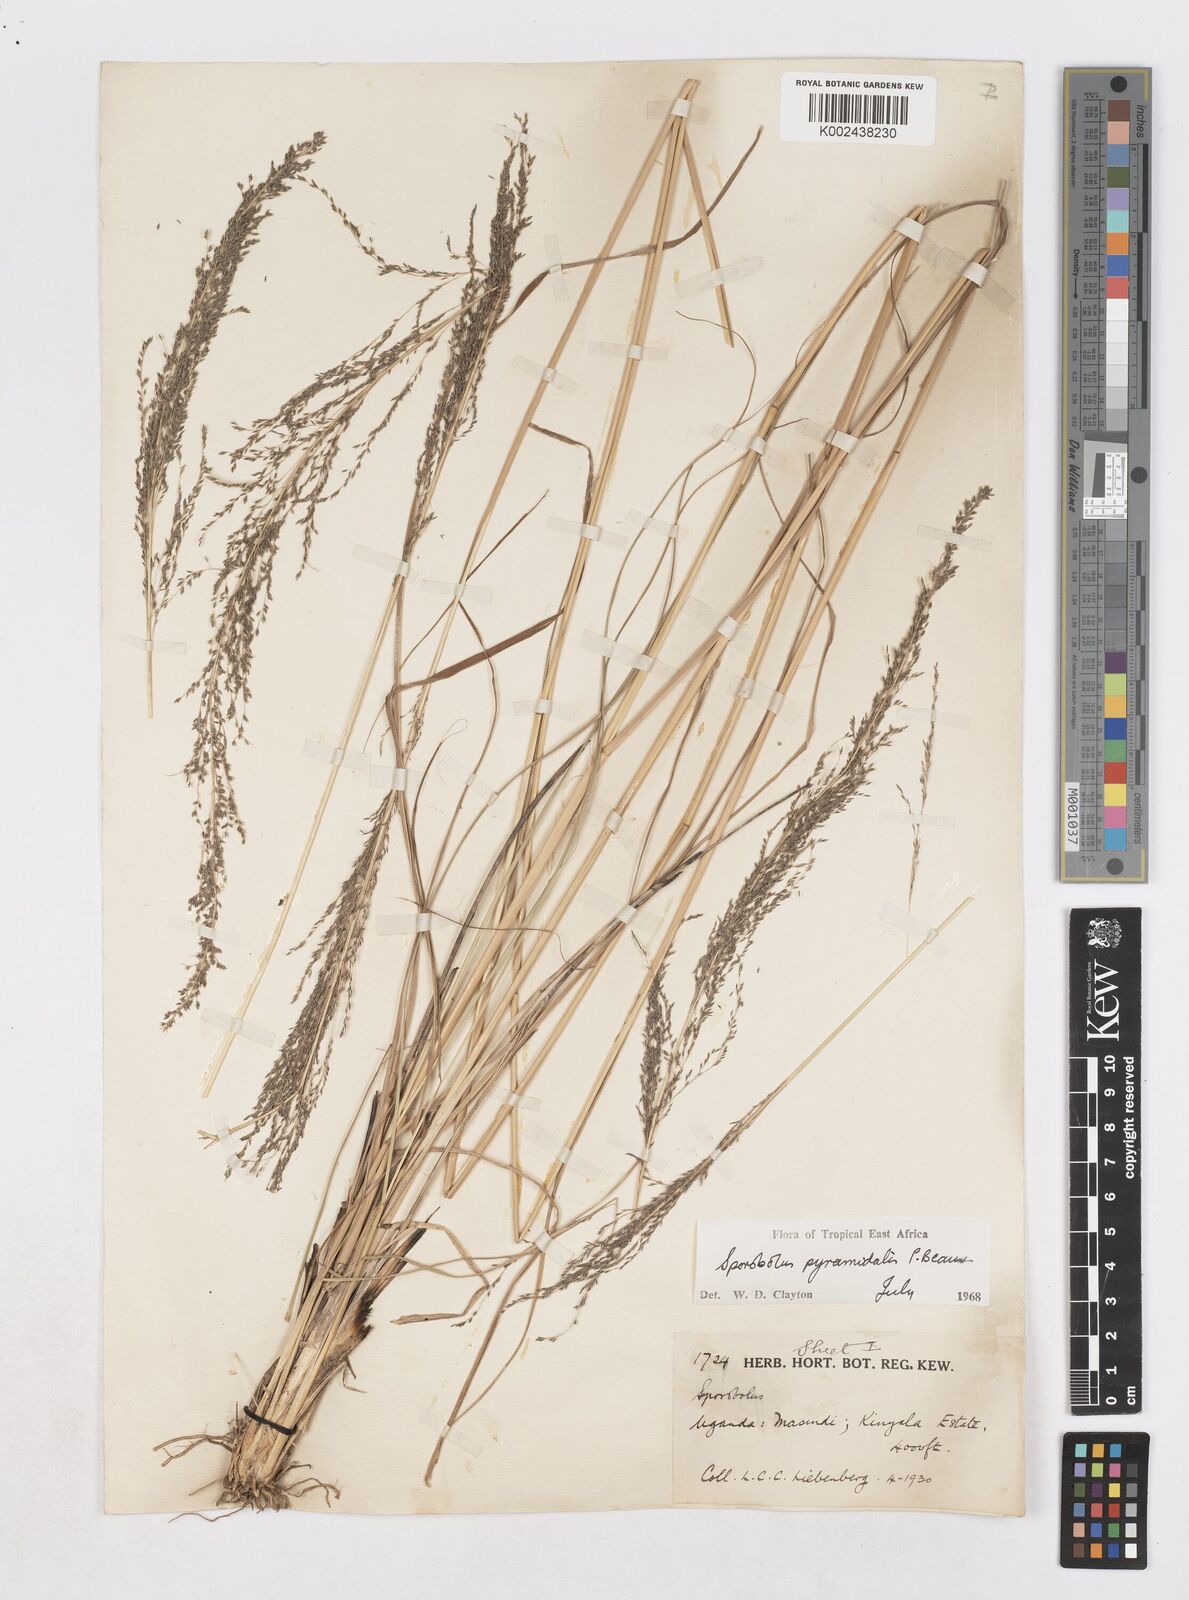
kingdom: Plantae
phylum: Tracheophyta
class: Liliopsida
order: Poales
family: Poaceae
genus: Sporobolus
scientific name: Sporobolus pyramidalis
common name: West indian dropseed
